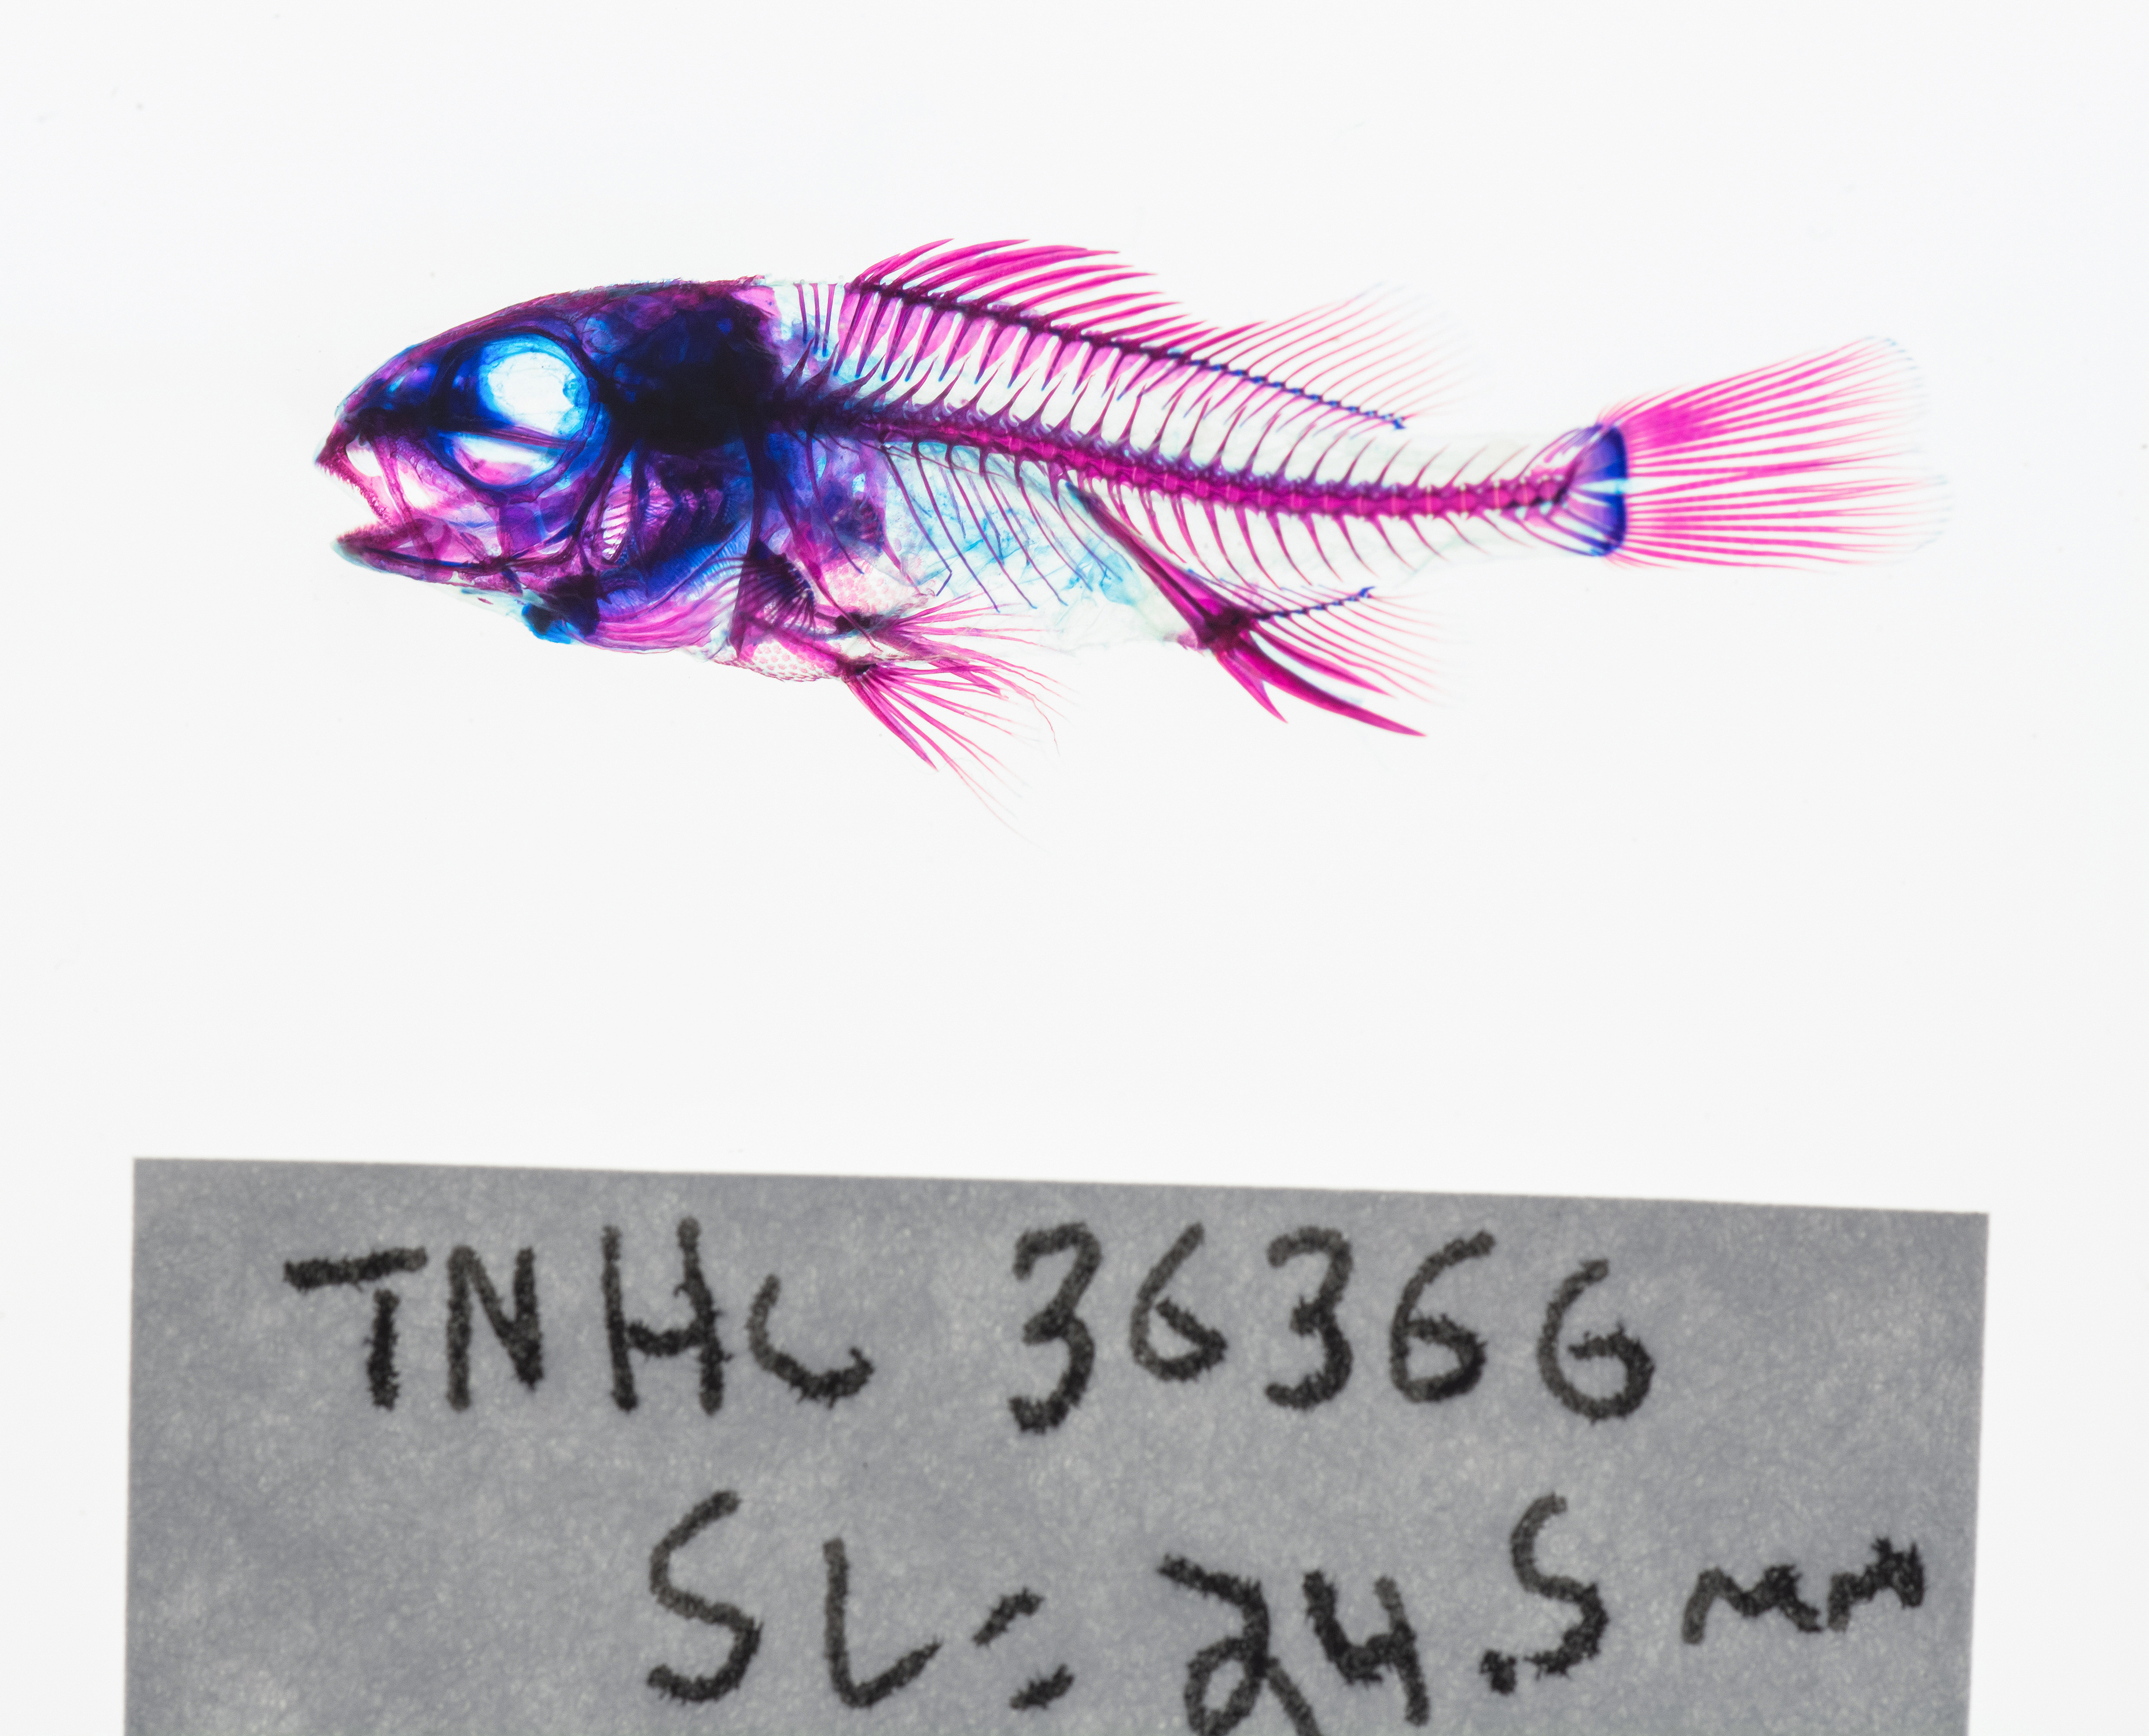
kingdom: Animalia
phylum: Chordata
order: Perciformes
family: Carangidae
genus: Caranx
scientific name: Caranx hippos
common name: Common jack
